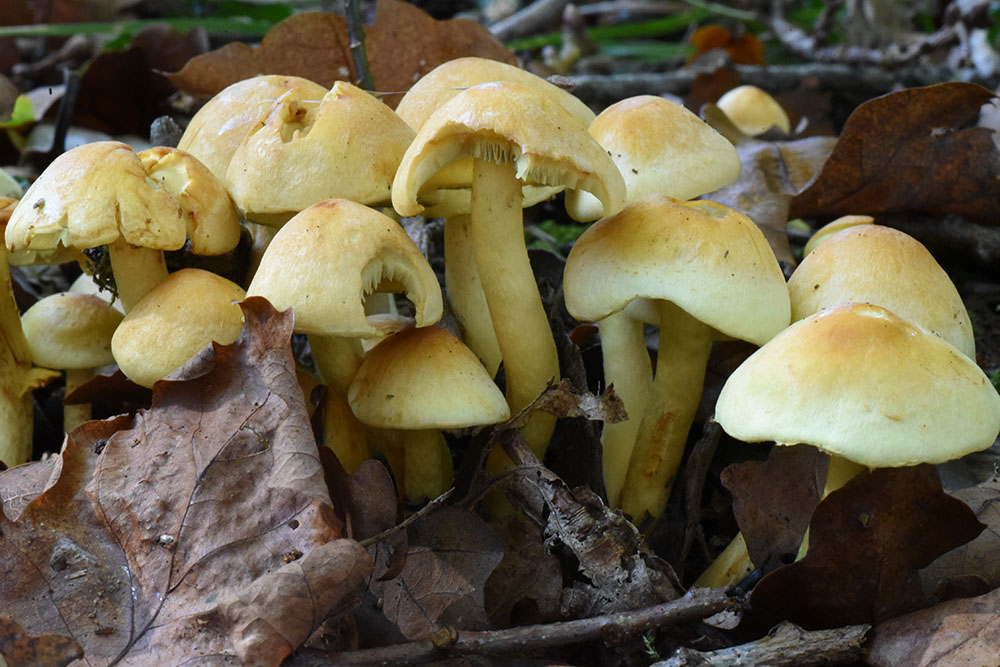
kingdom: Fungi
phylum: Basidiomycota
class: Agaricomycetes
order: Agaricales
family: Strophariaceae
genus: Hypholoma
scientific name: Hypholoma fasciculare
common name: Sulphur tuft
